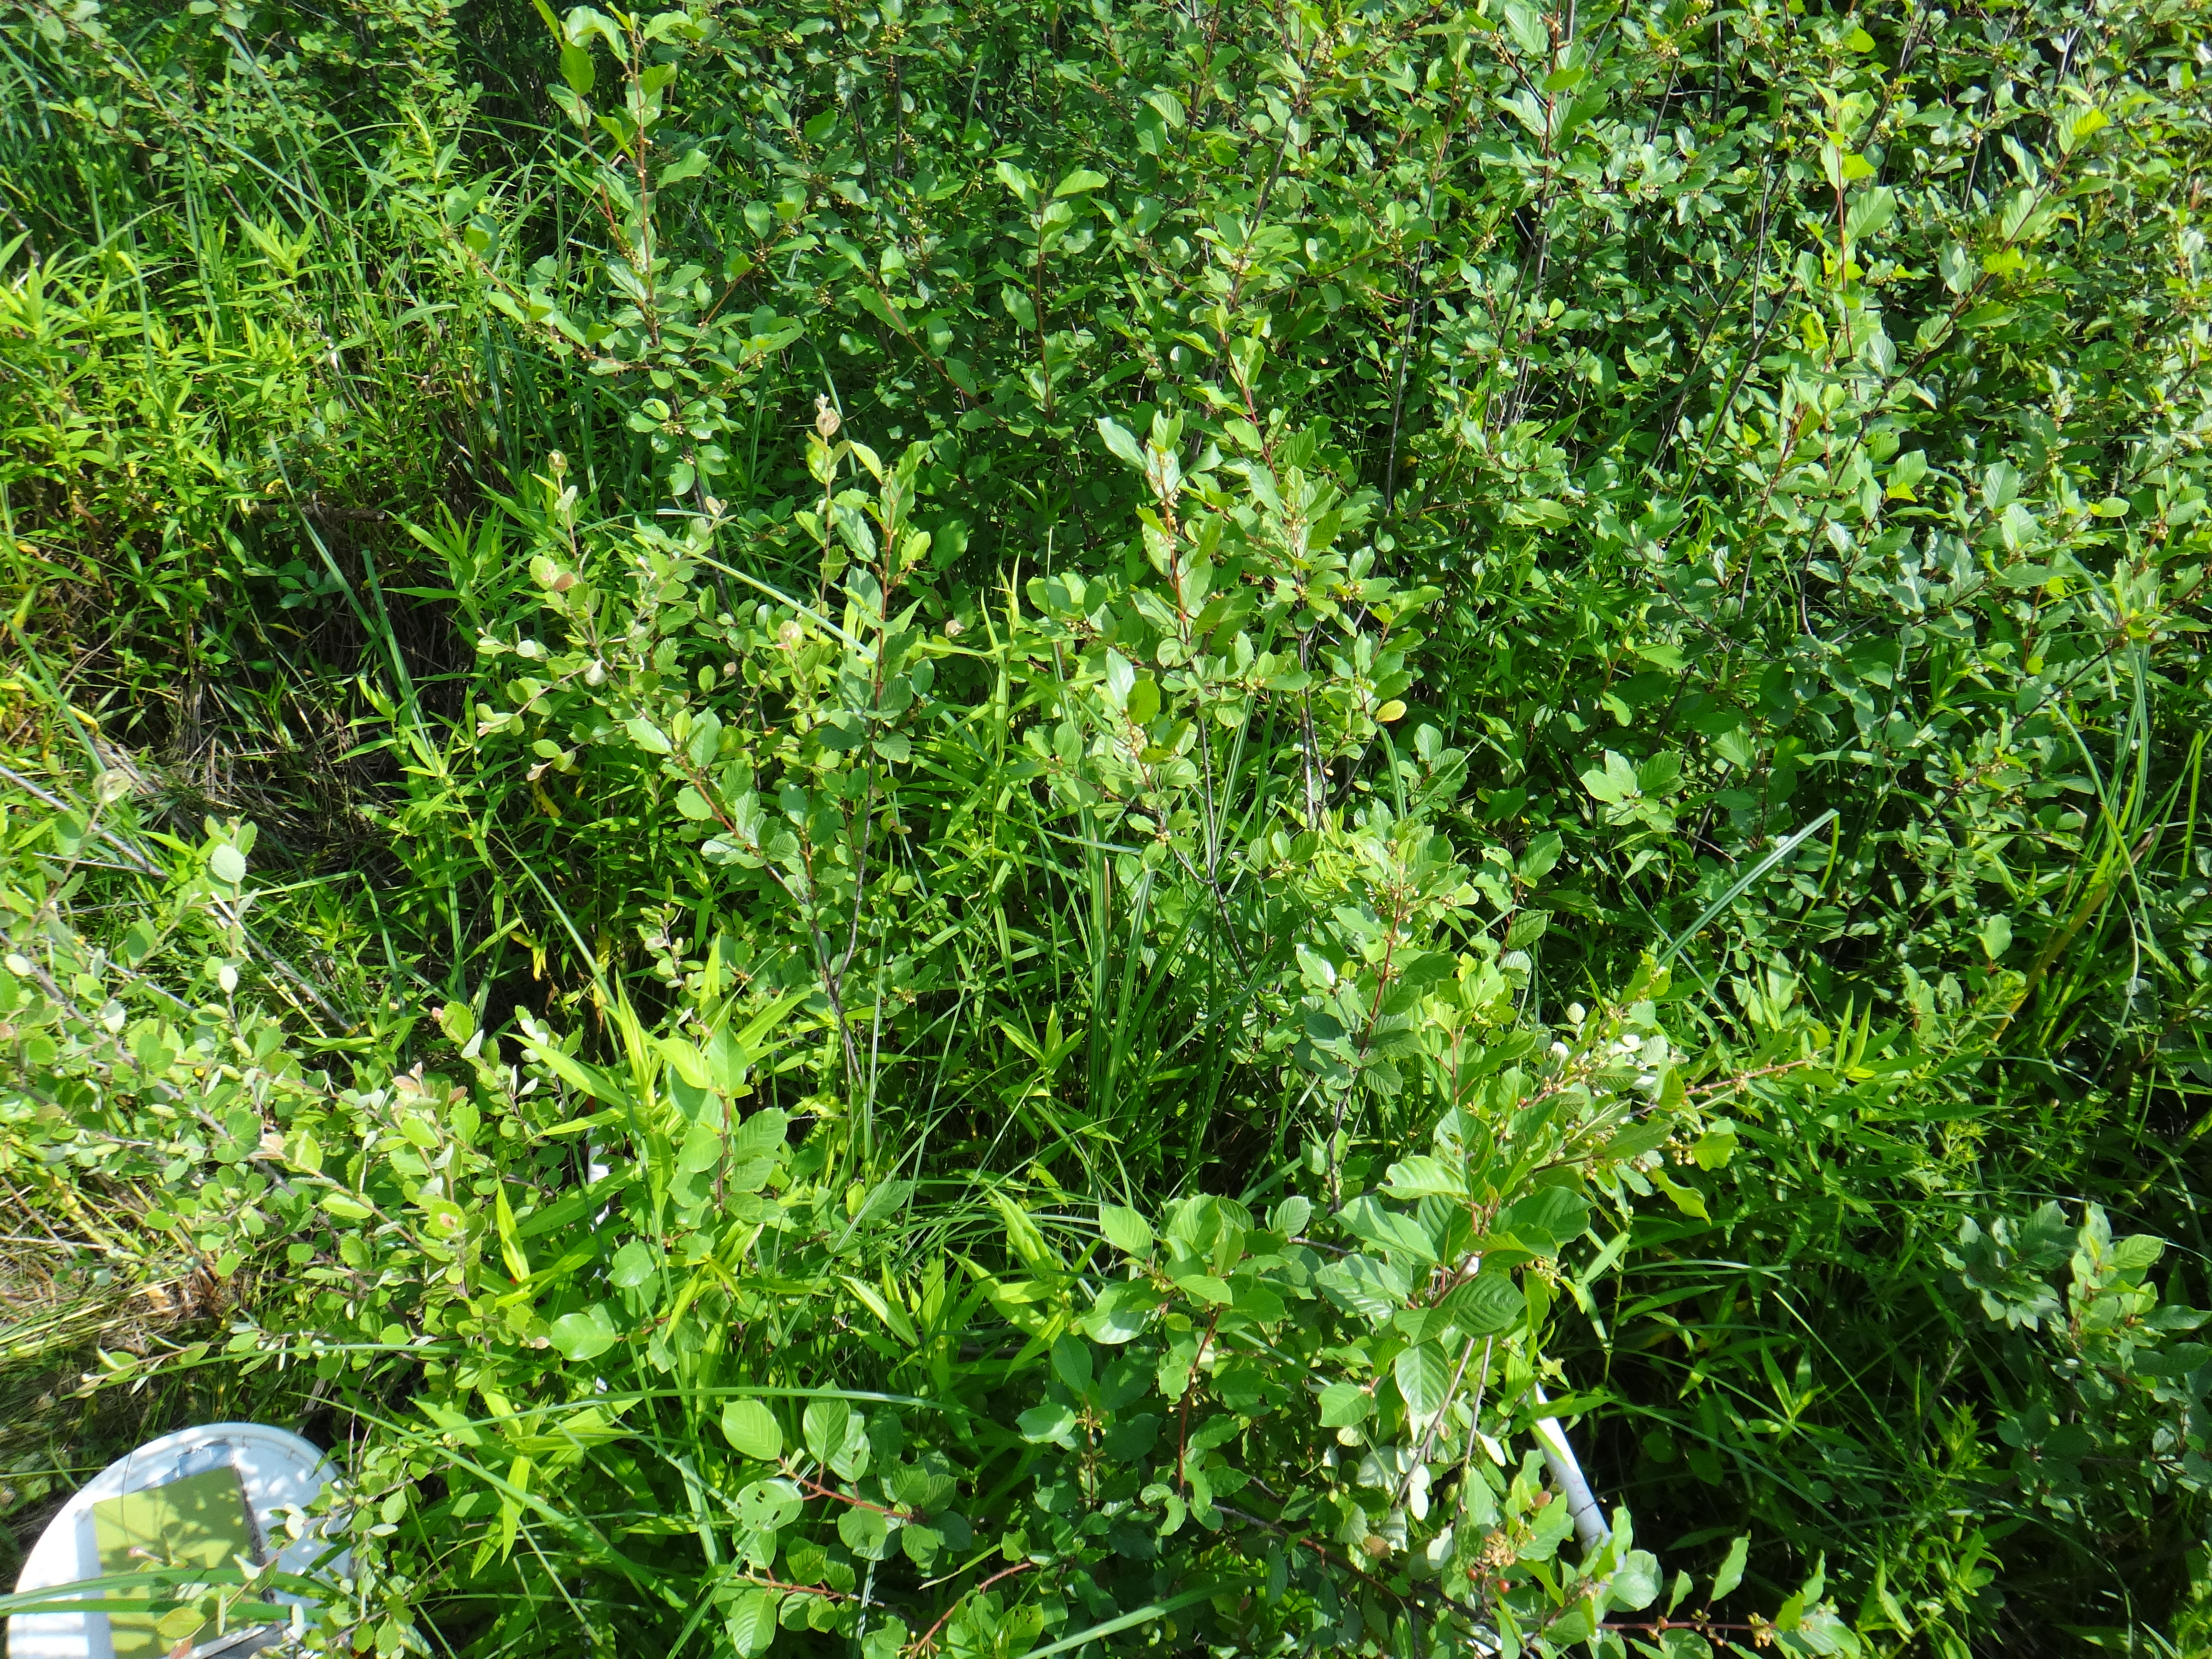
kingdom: Plantae
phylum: Tracheophyta
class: Polypodiopsida
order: Polypodiales
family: Onocleaceae
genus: Onoclea
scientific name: Onoclea sensibilis
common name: Sensitive fern
